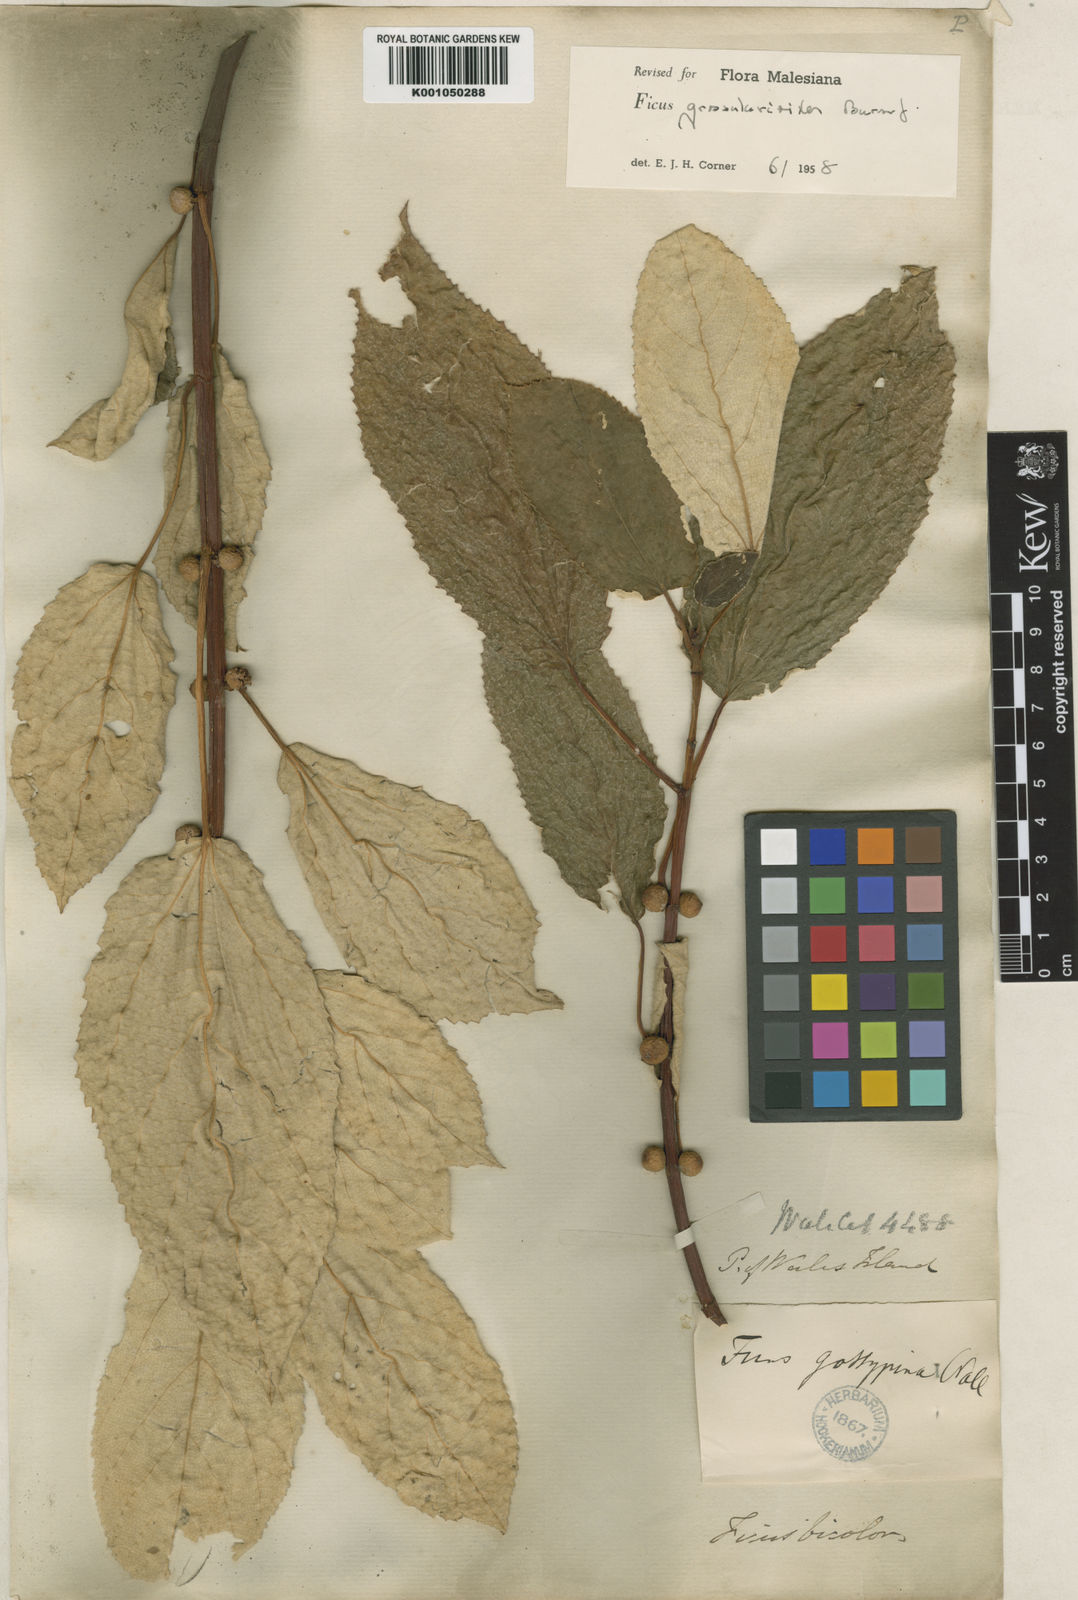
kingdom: Plantae
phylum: Tracheophyta
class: Magnoliopsida
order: Rosales
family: Moraceae
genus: Ficus
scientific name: Ficus grossularioides
